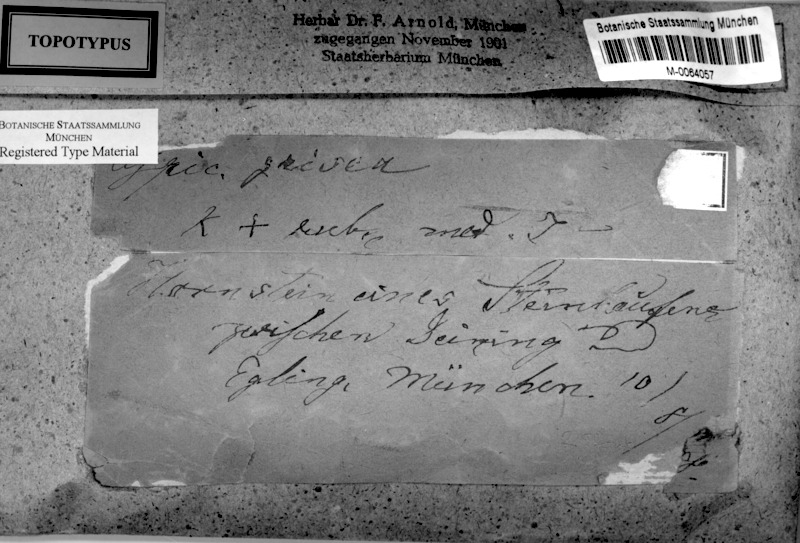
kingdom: Fungi
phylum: Ascomycota
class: Lecanoromycetes
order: Pertusariales
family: Megasporaceae
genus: Aspicilia
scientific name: Aspicilia grisea
